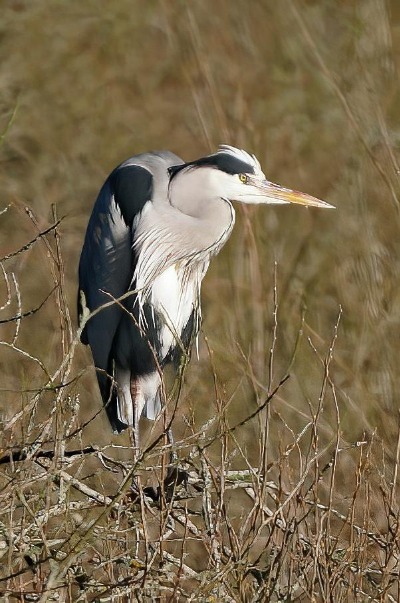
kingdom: Animalia
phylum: Chordata
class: Aves
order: Pelecaniformes
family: Ardeidae
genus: Ardea
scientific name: Ardea cinerea
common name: Fiskehejre
